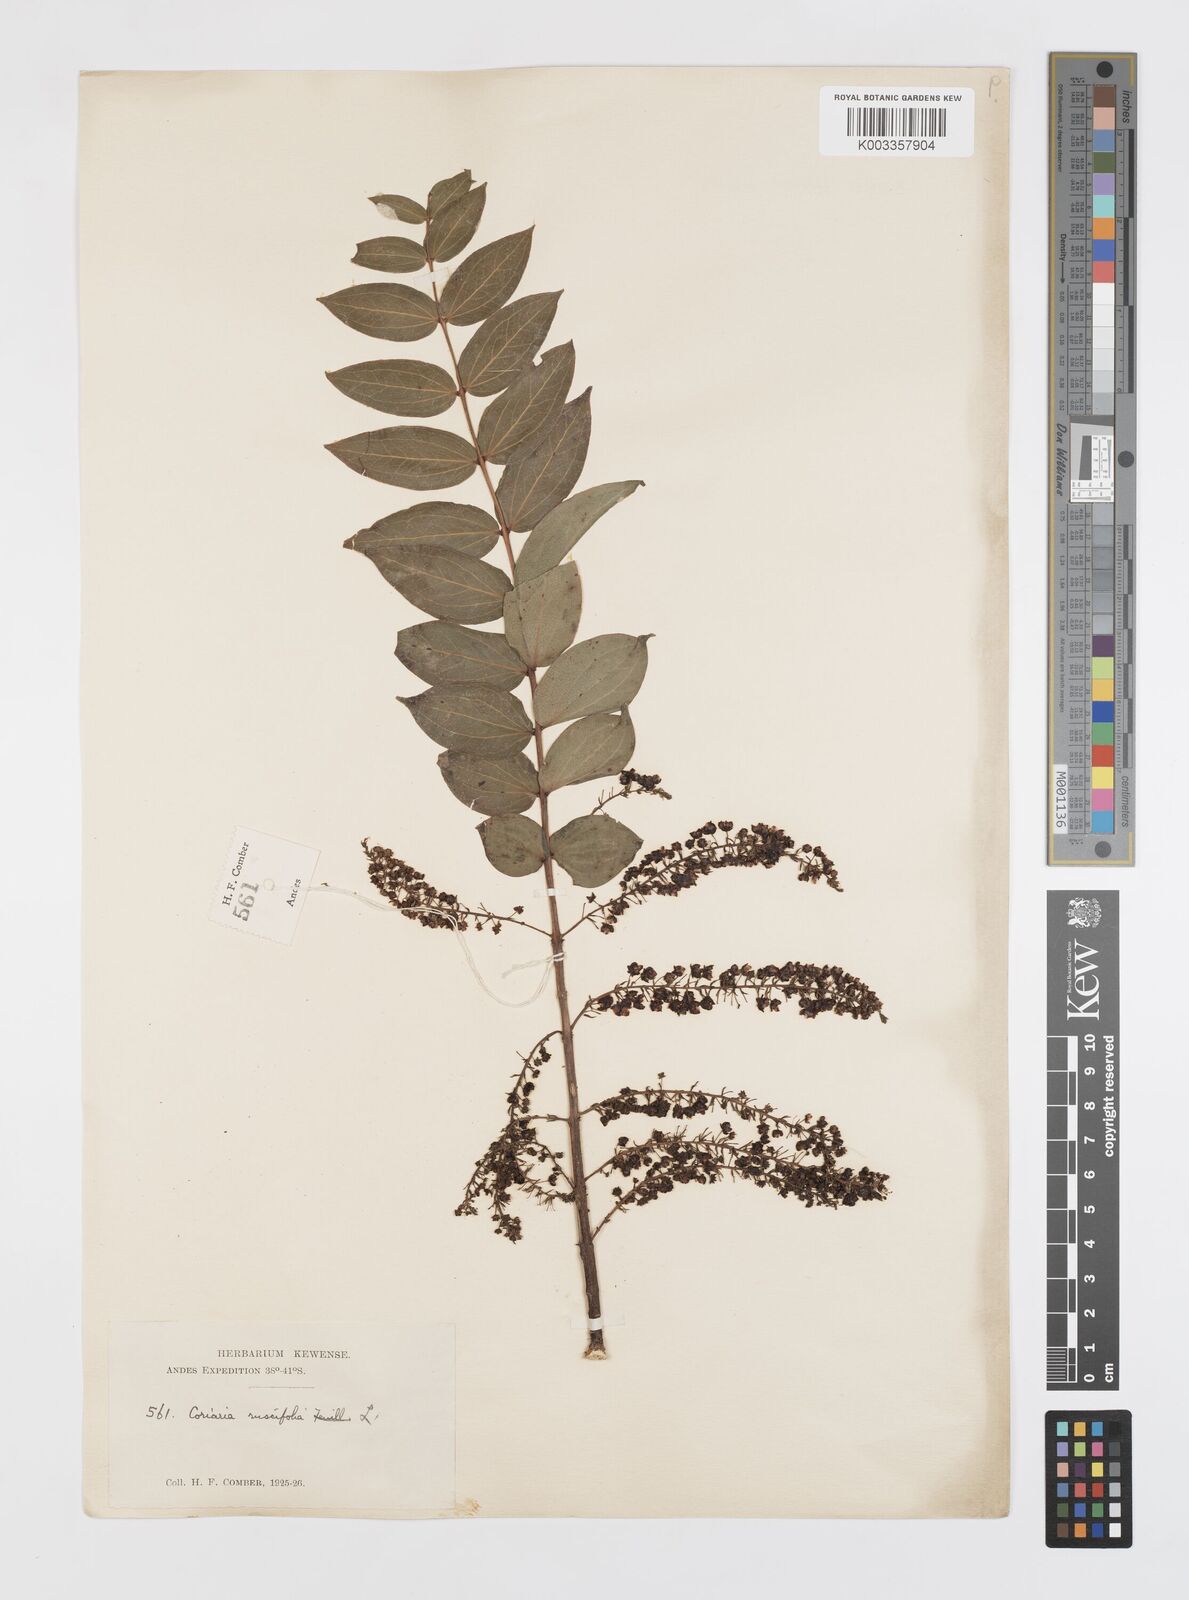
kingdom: Plantae
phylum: Tracheophyta
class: Magnoliopsida
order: Cucurbitales
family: Coriariaceae
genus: Coriaria
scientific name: Coriaria ruscifolia
